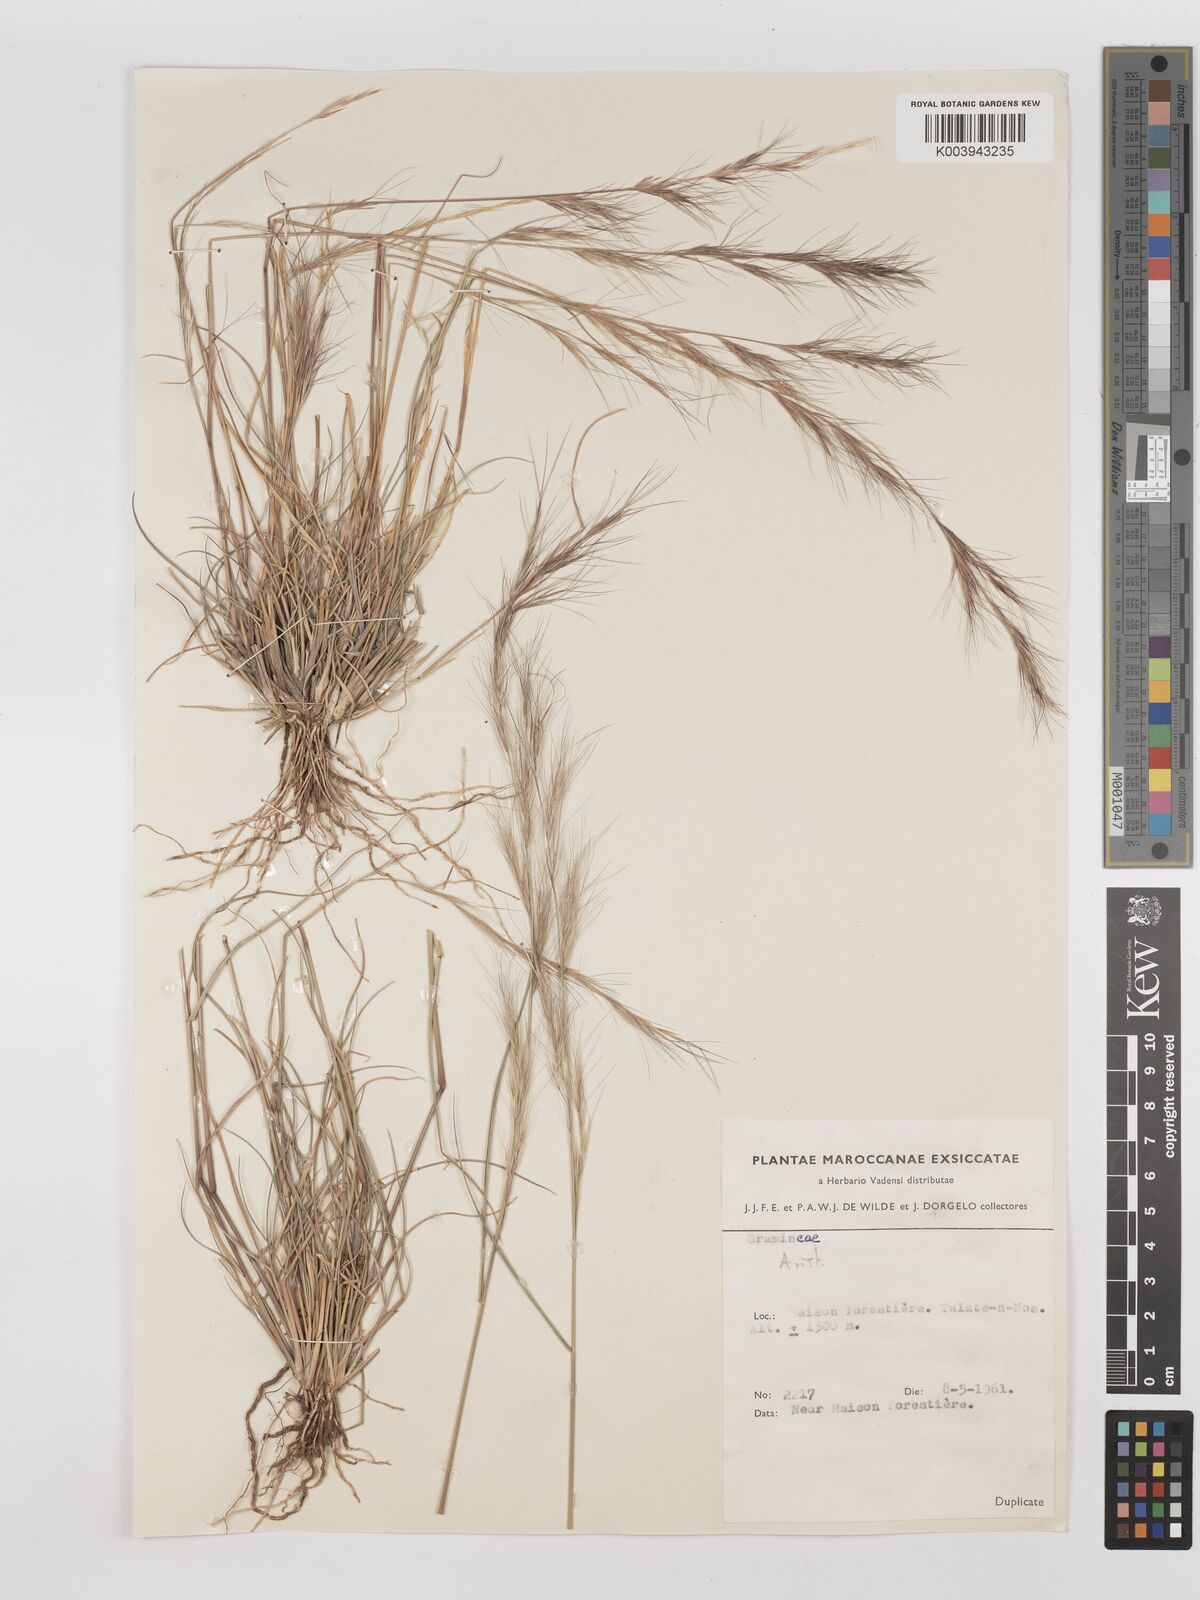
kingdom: Plantae
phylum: Tracheophyta
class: Liliopsida
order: Poales
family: Poaceae
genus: Aristida
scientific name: Aristida adscensionis
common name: Sixweeks threeawn
